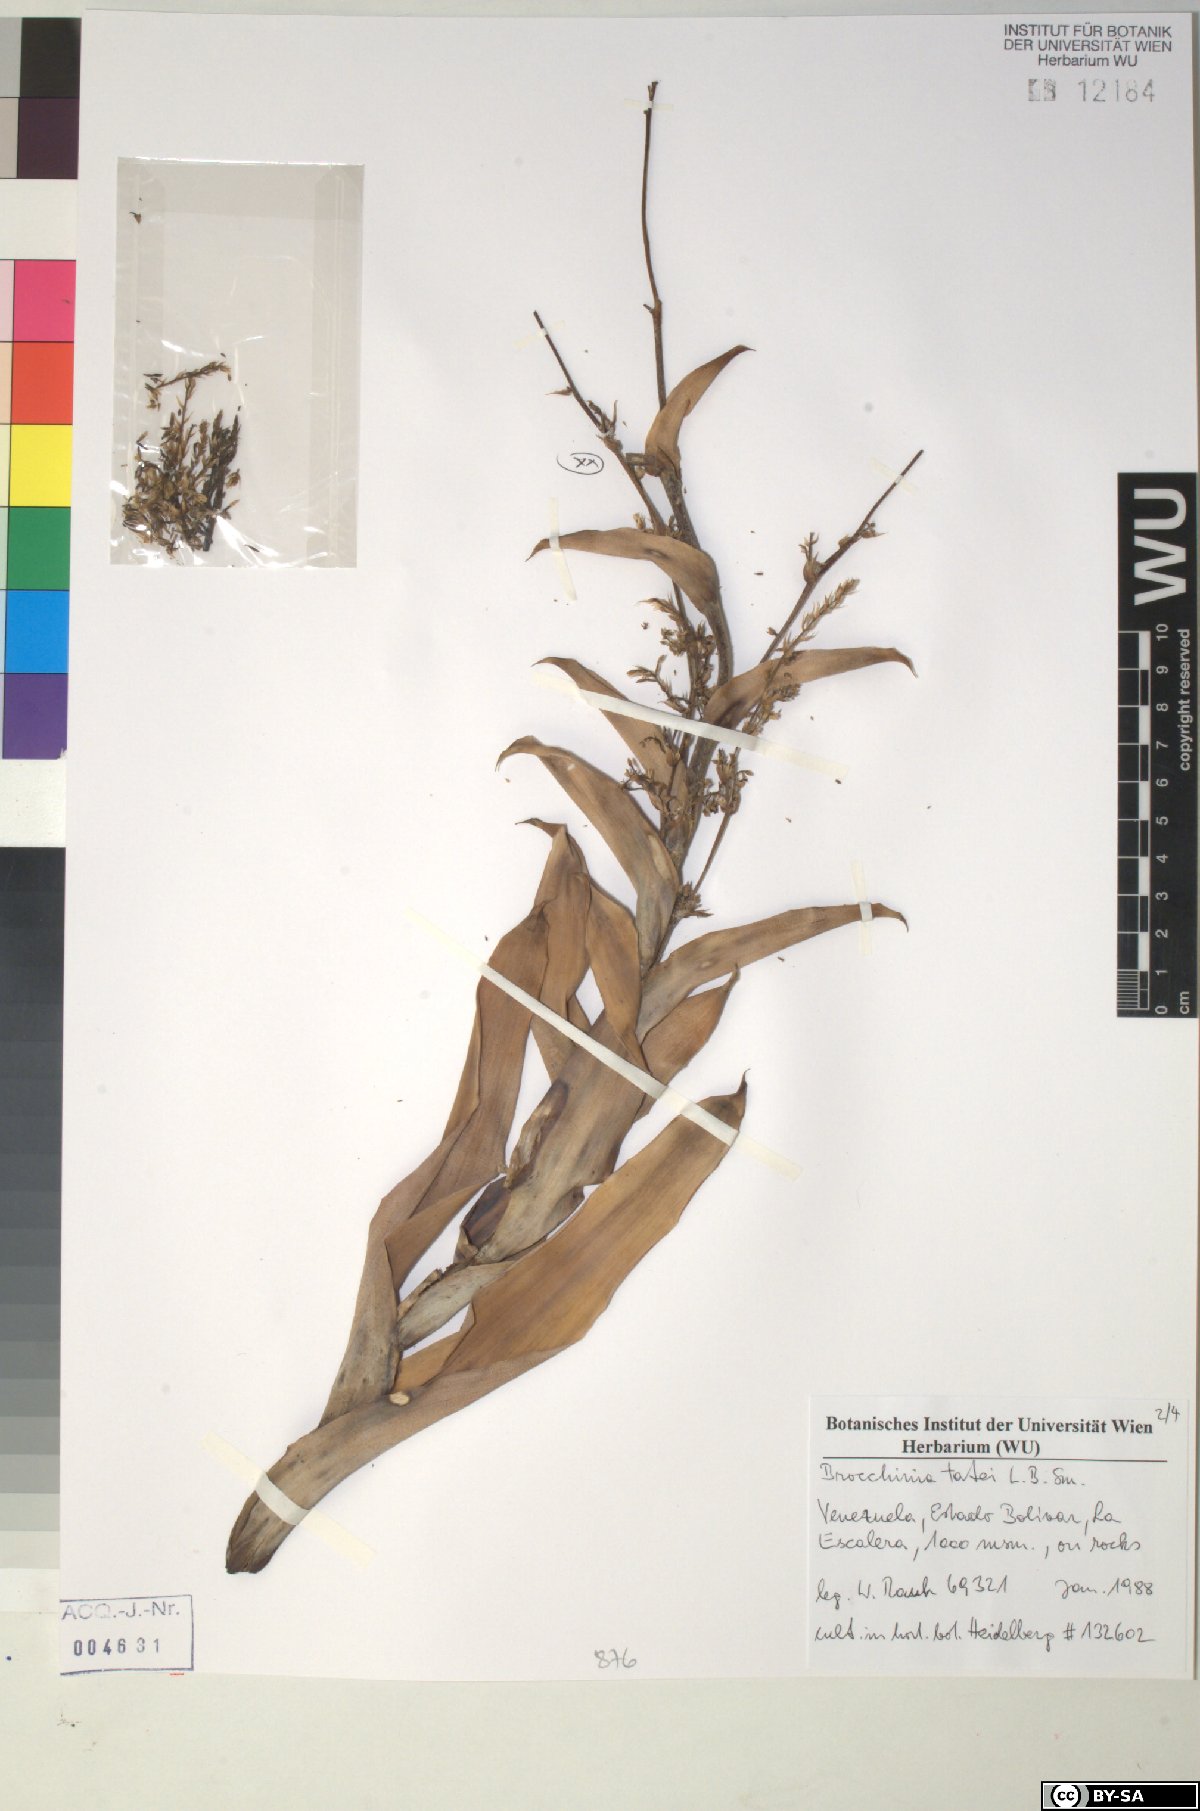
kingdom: Plantae
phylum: Tracheophyta
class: Liliopsida
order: Poales
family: Bromeliaceae
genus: Brocchinia
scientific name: Brocchinia tatei
